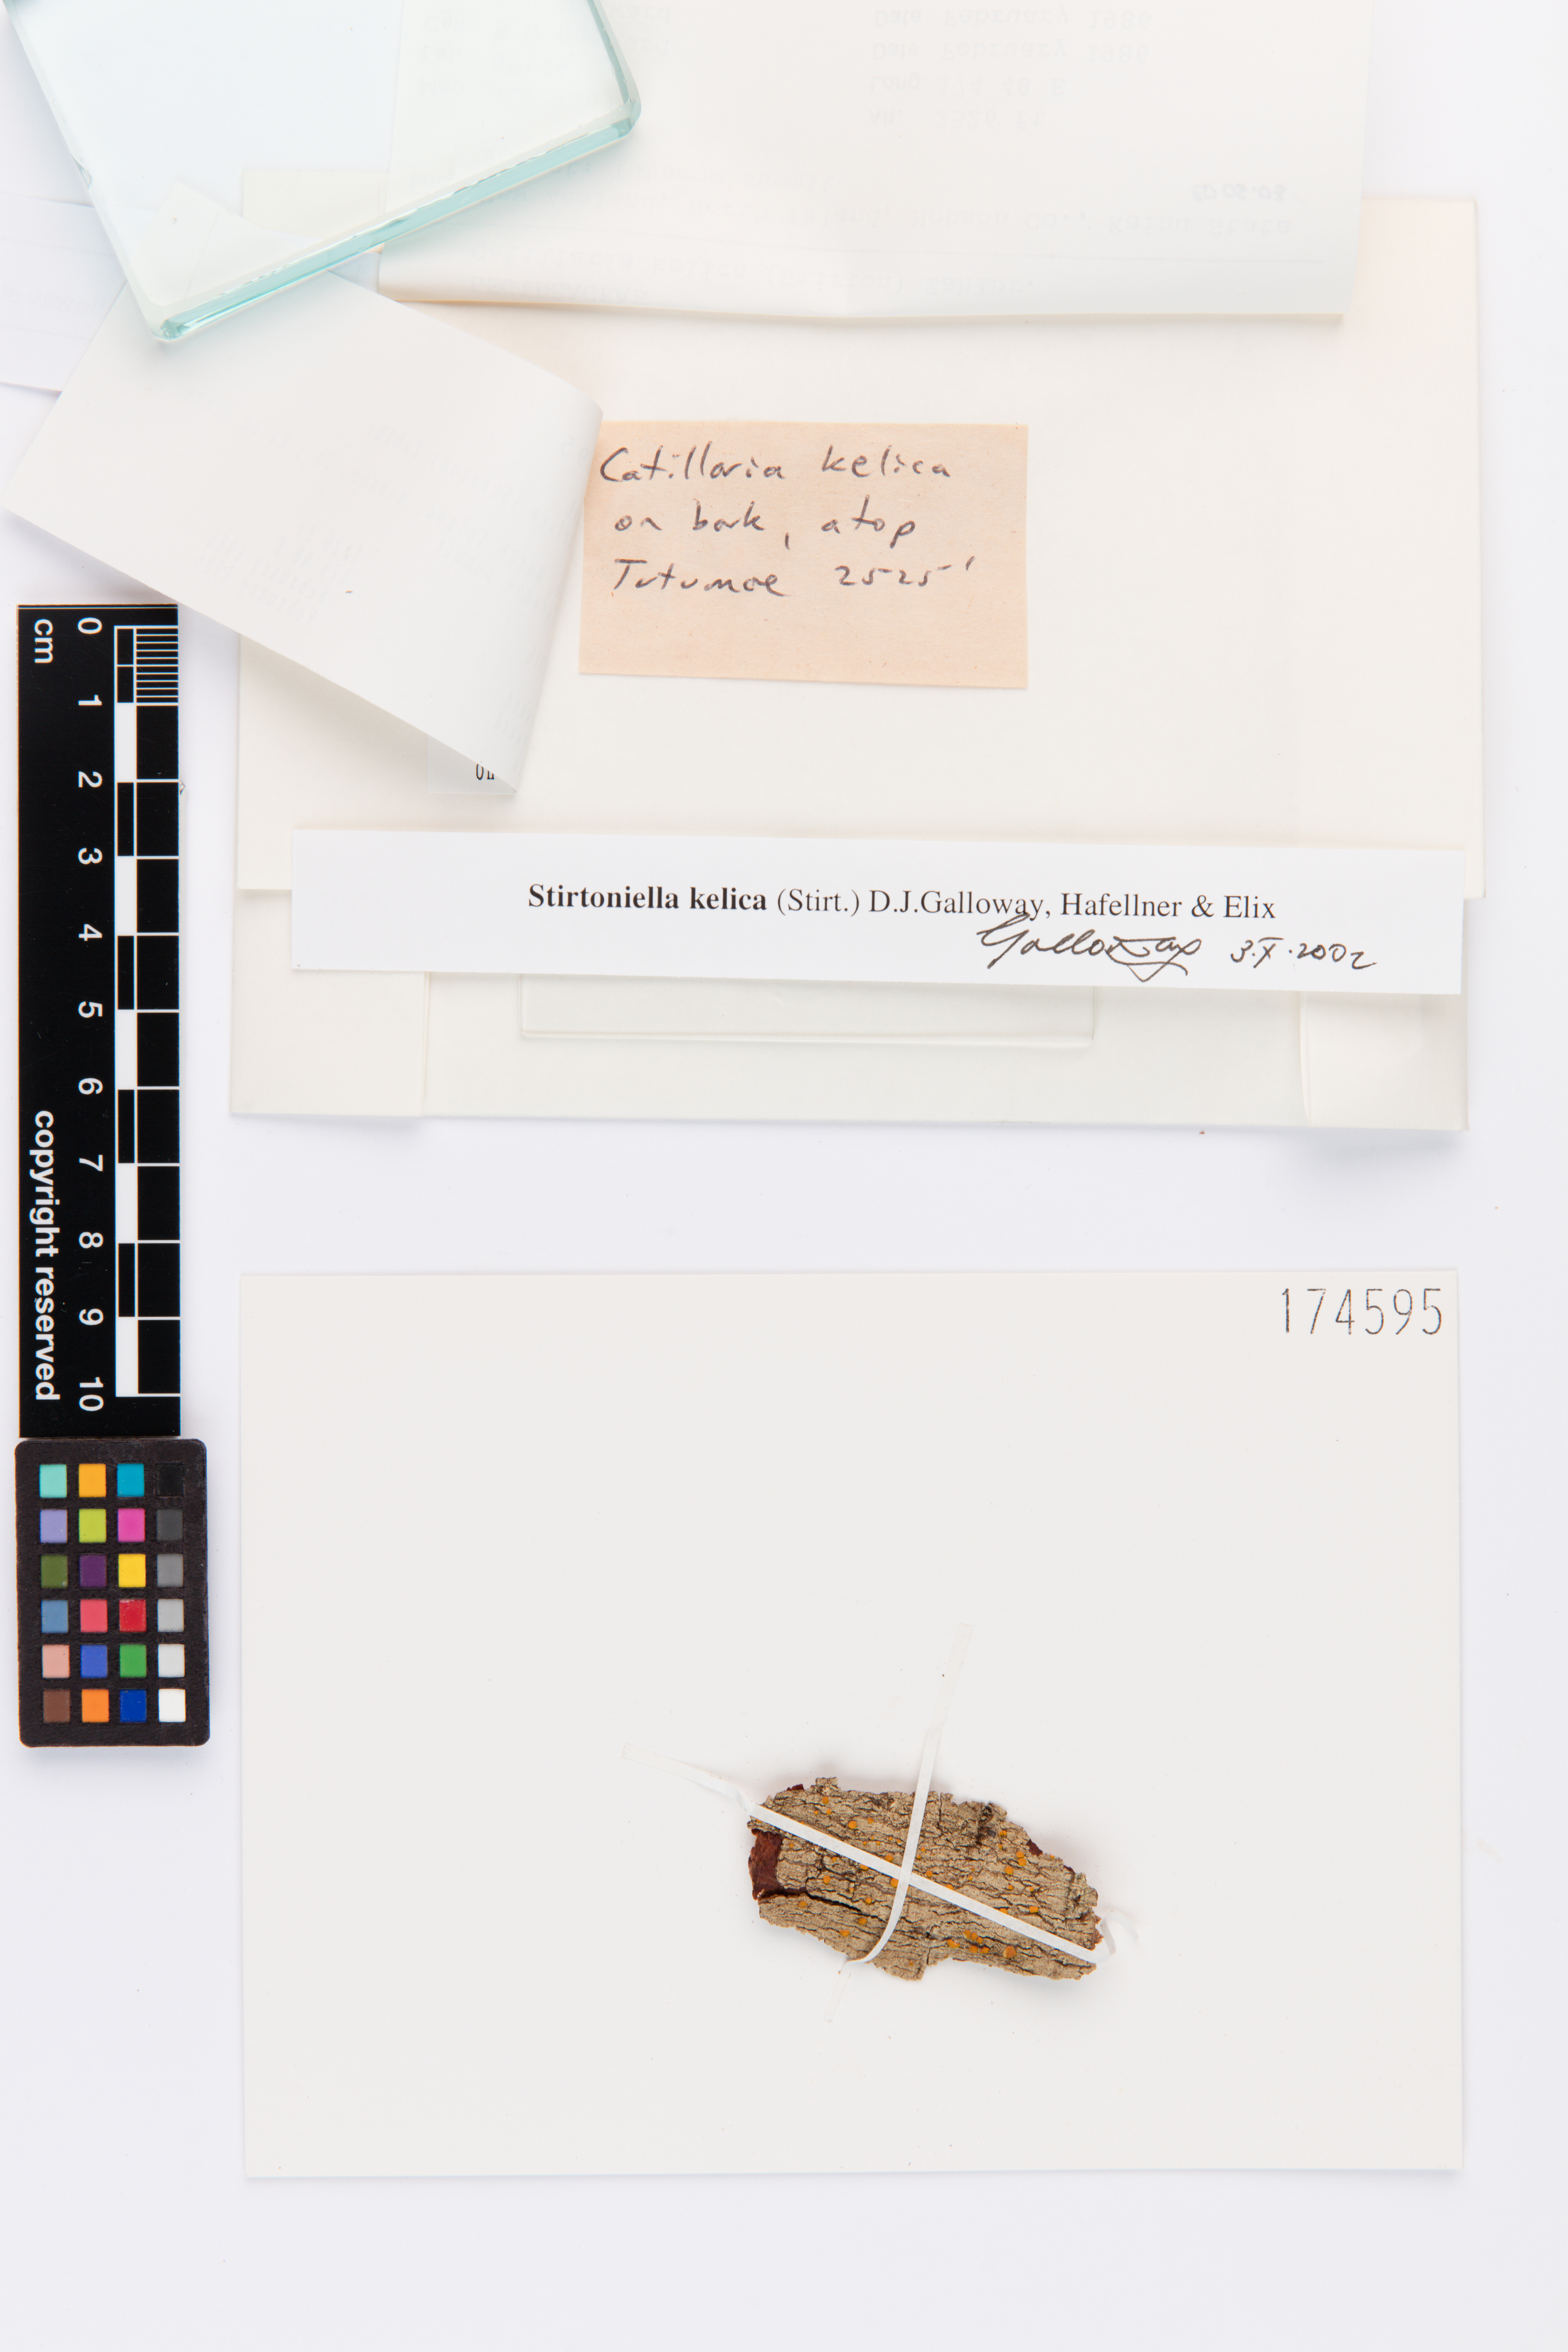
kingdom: Fungi
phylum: Ascomycota
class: Lecanoromycetes
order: Lecanorales
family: Ramalinaceae
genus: Stirtoniella
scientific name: Stirtoniella kelica
